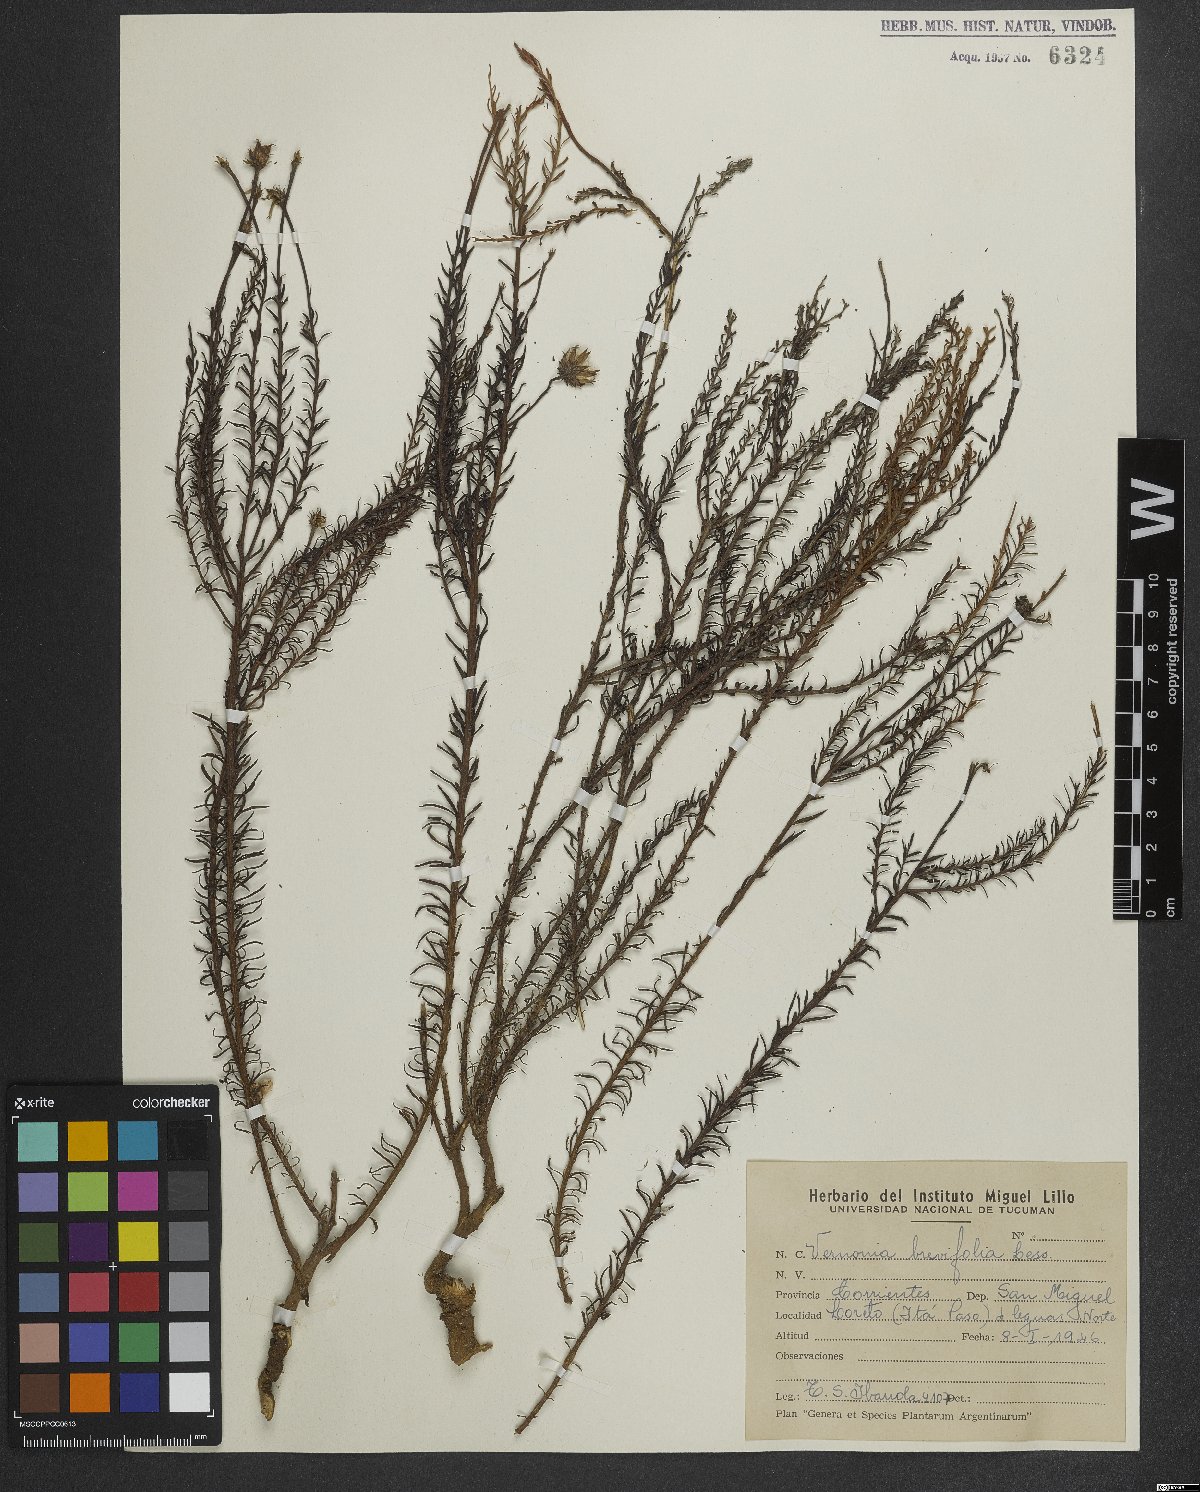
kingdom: Plantae
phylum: Tracheophyta
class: Magnoliopsida
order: Asterales
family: Asteraceae
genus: Lessingianthus
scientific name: Lessingianthus brevifolius
